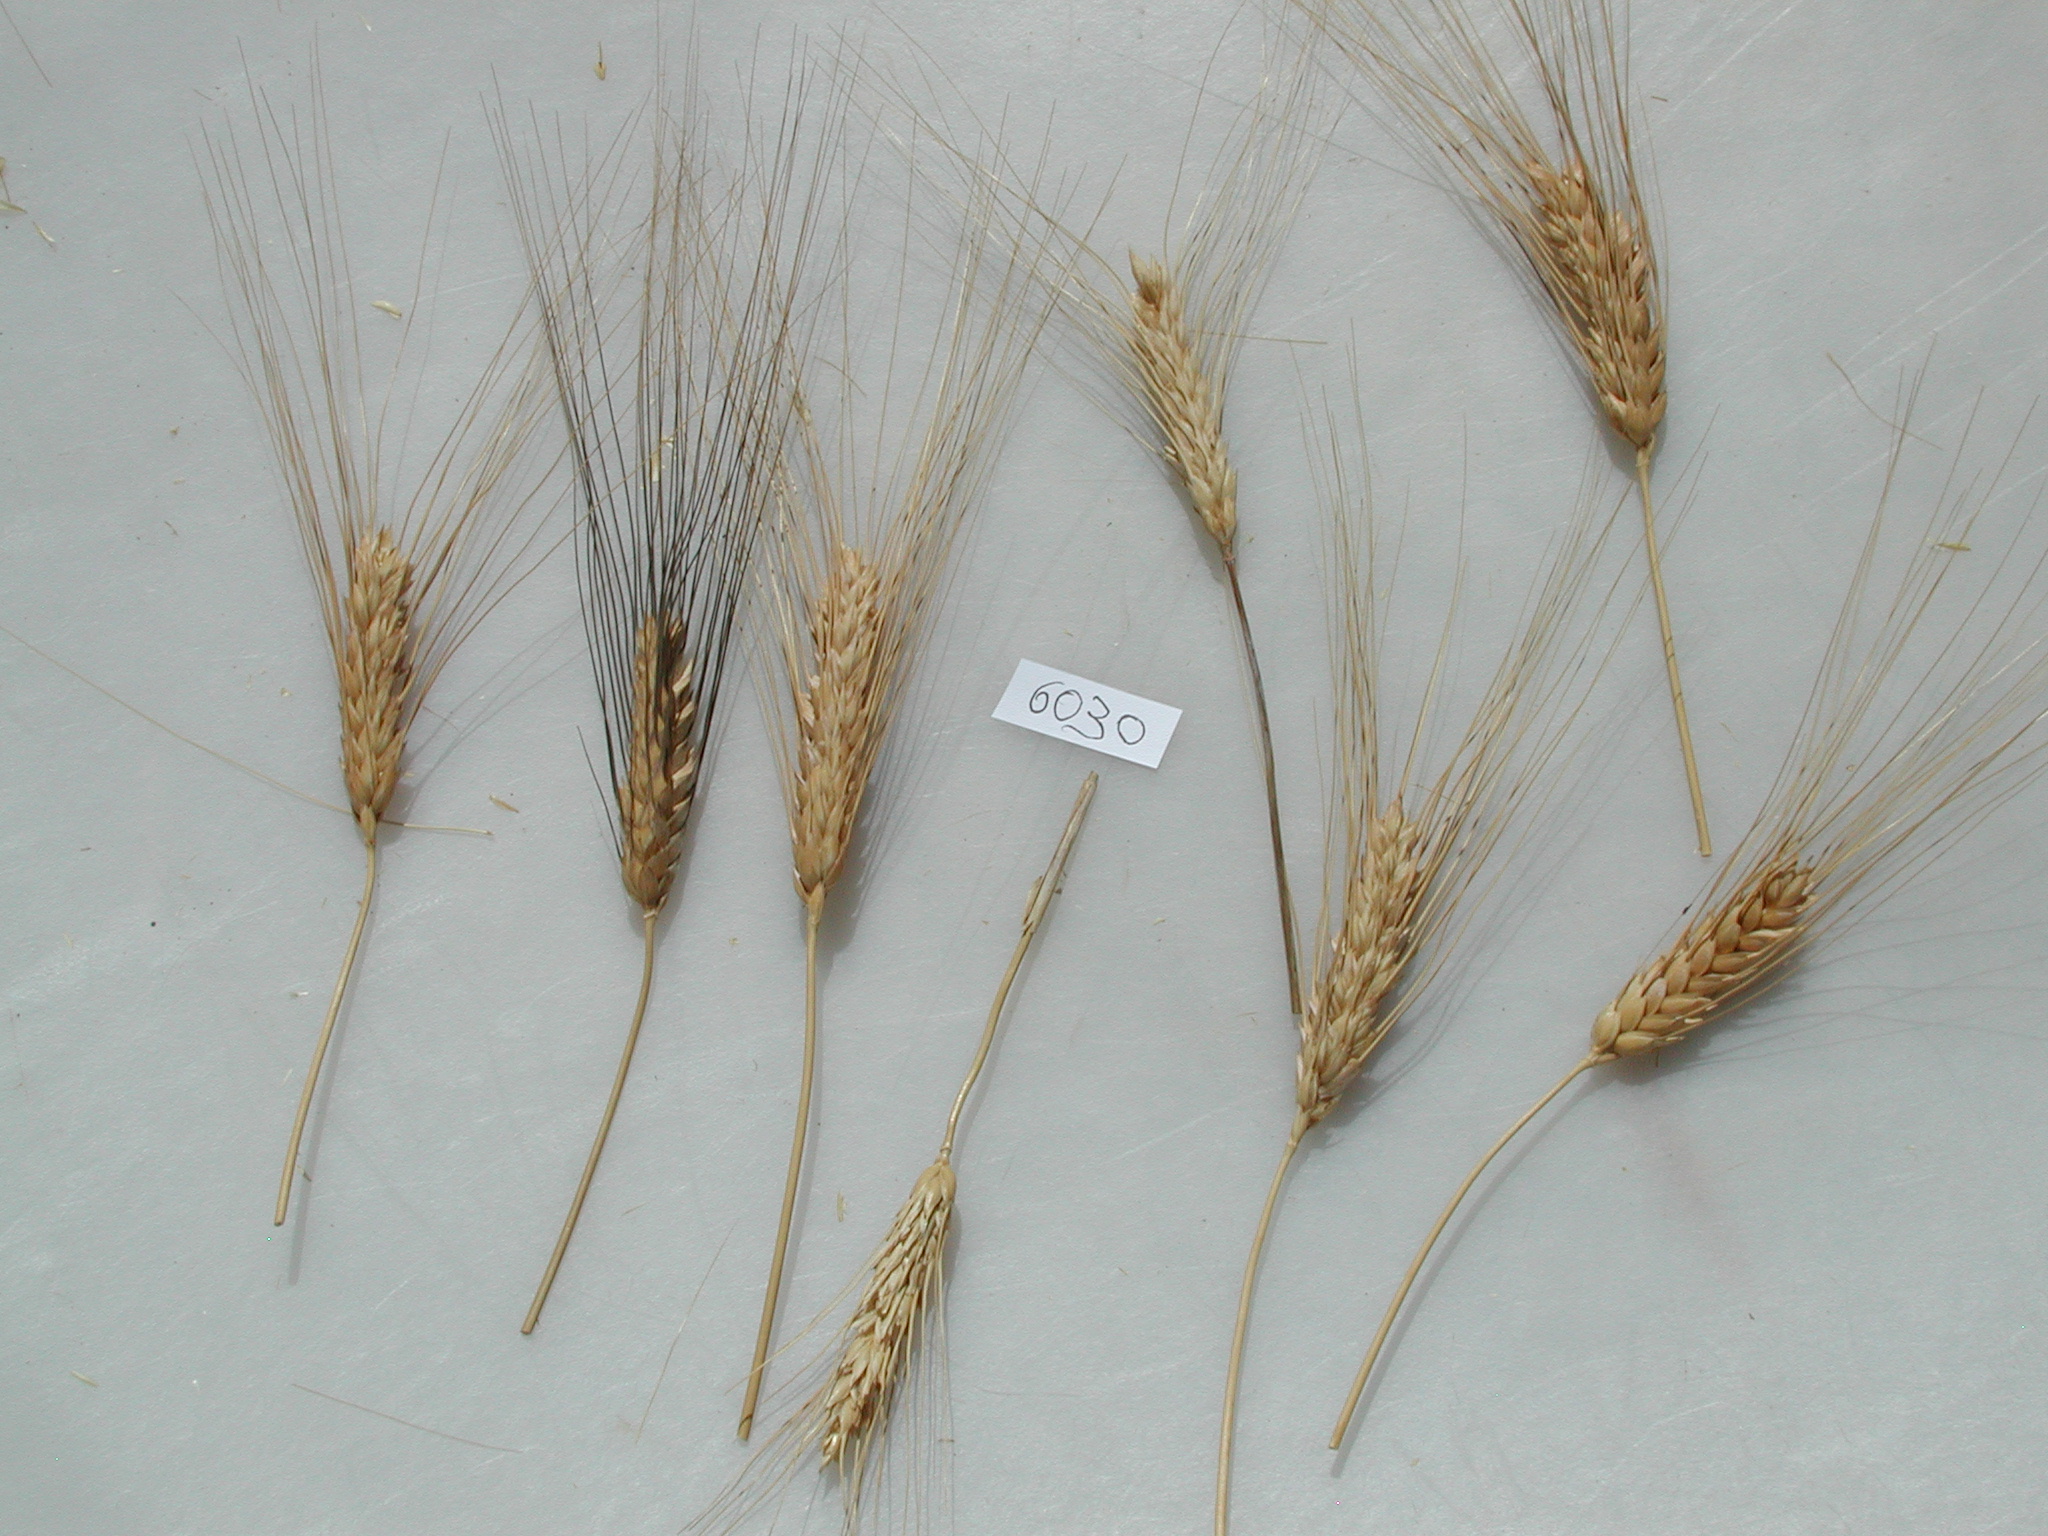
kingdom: Plantae
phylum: Tracheophyta
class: Liliopsida
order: Poales
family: Poaceae
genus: Triticum
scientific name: Triticum turgidum
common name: Wheat
